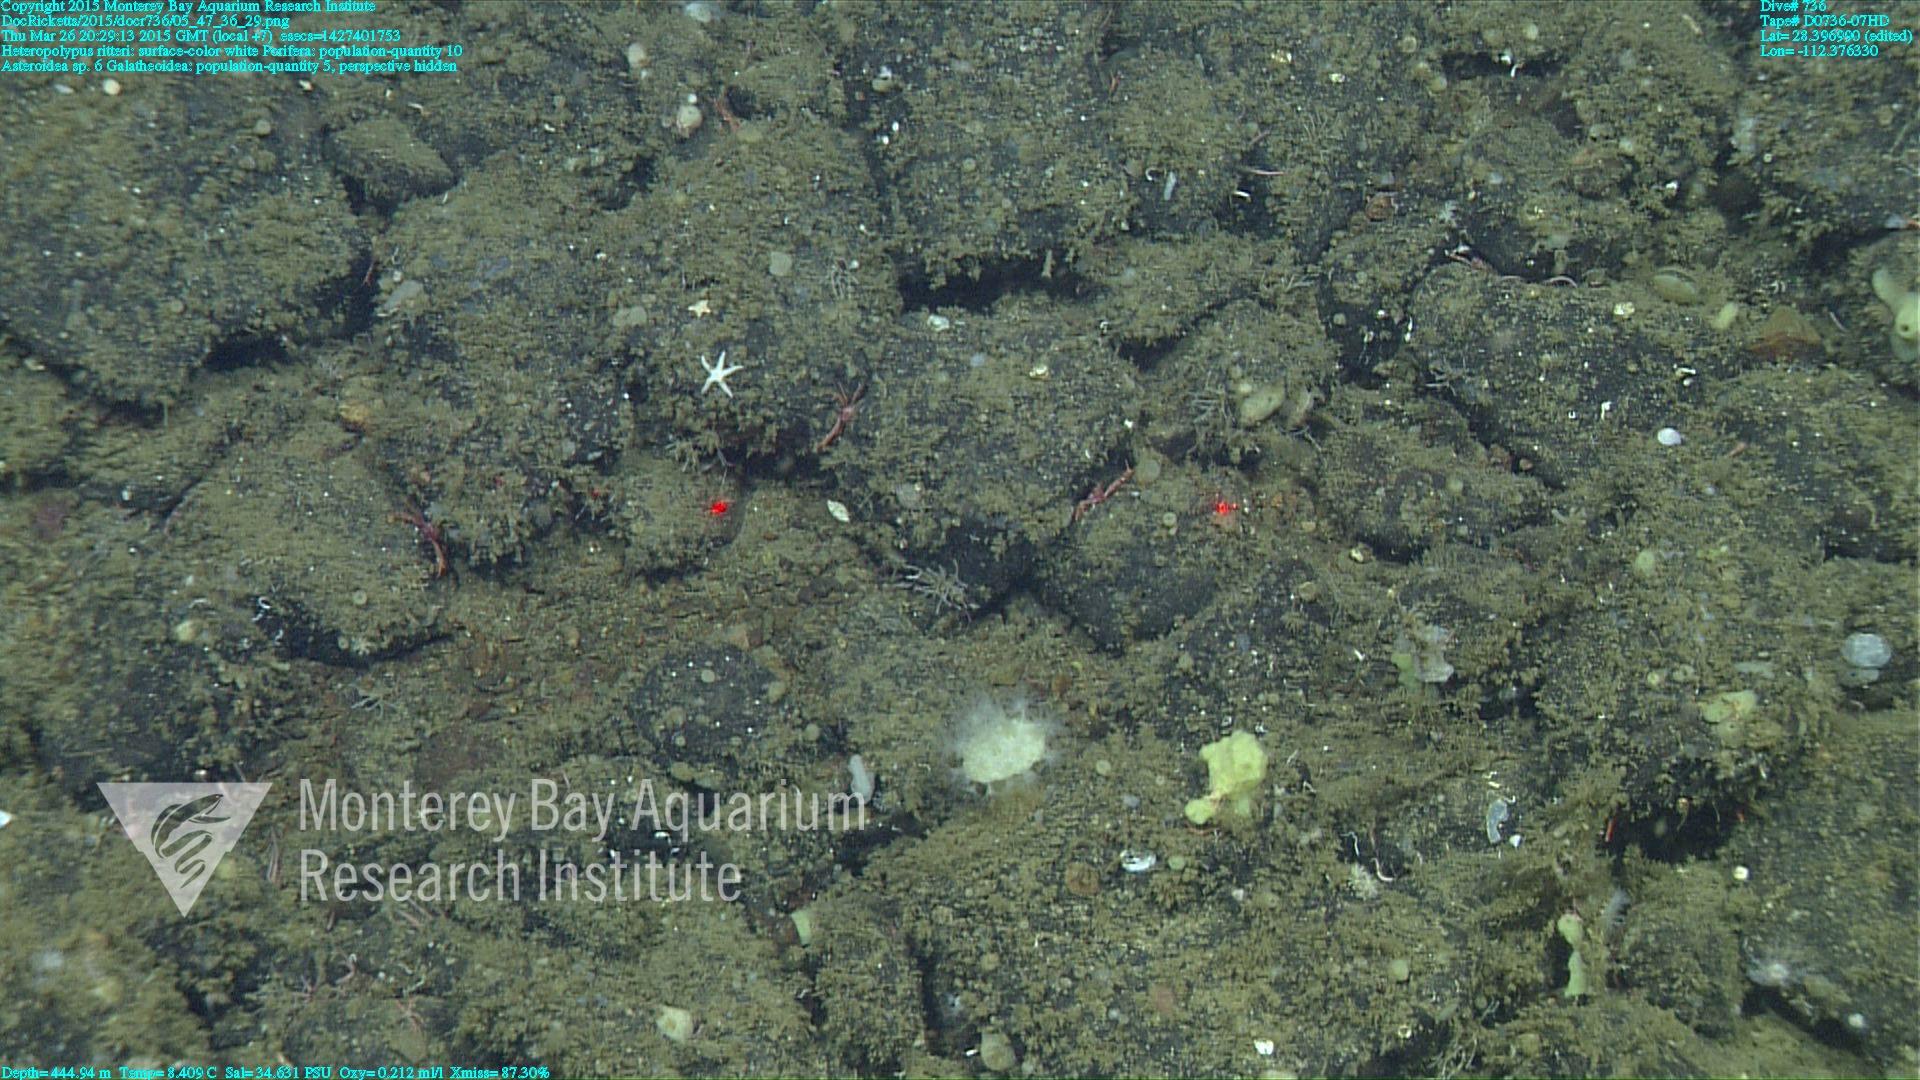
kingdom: Animalia
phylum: Cnidaria
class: Anthozoa
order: Scleralcyonacea
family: Coralliidae
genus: Heteropolypus
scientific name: Heteropolypus ritteri
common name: Ritter's soft coral
